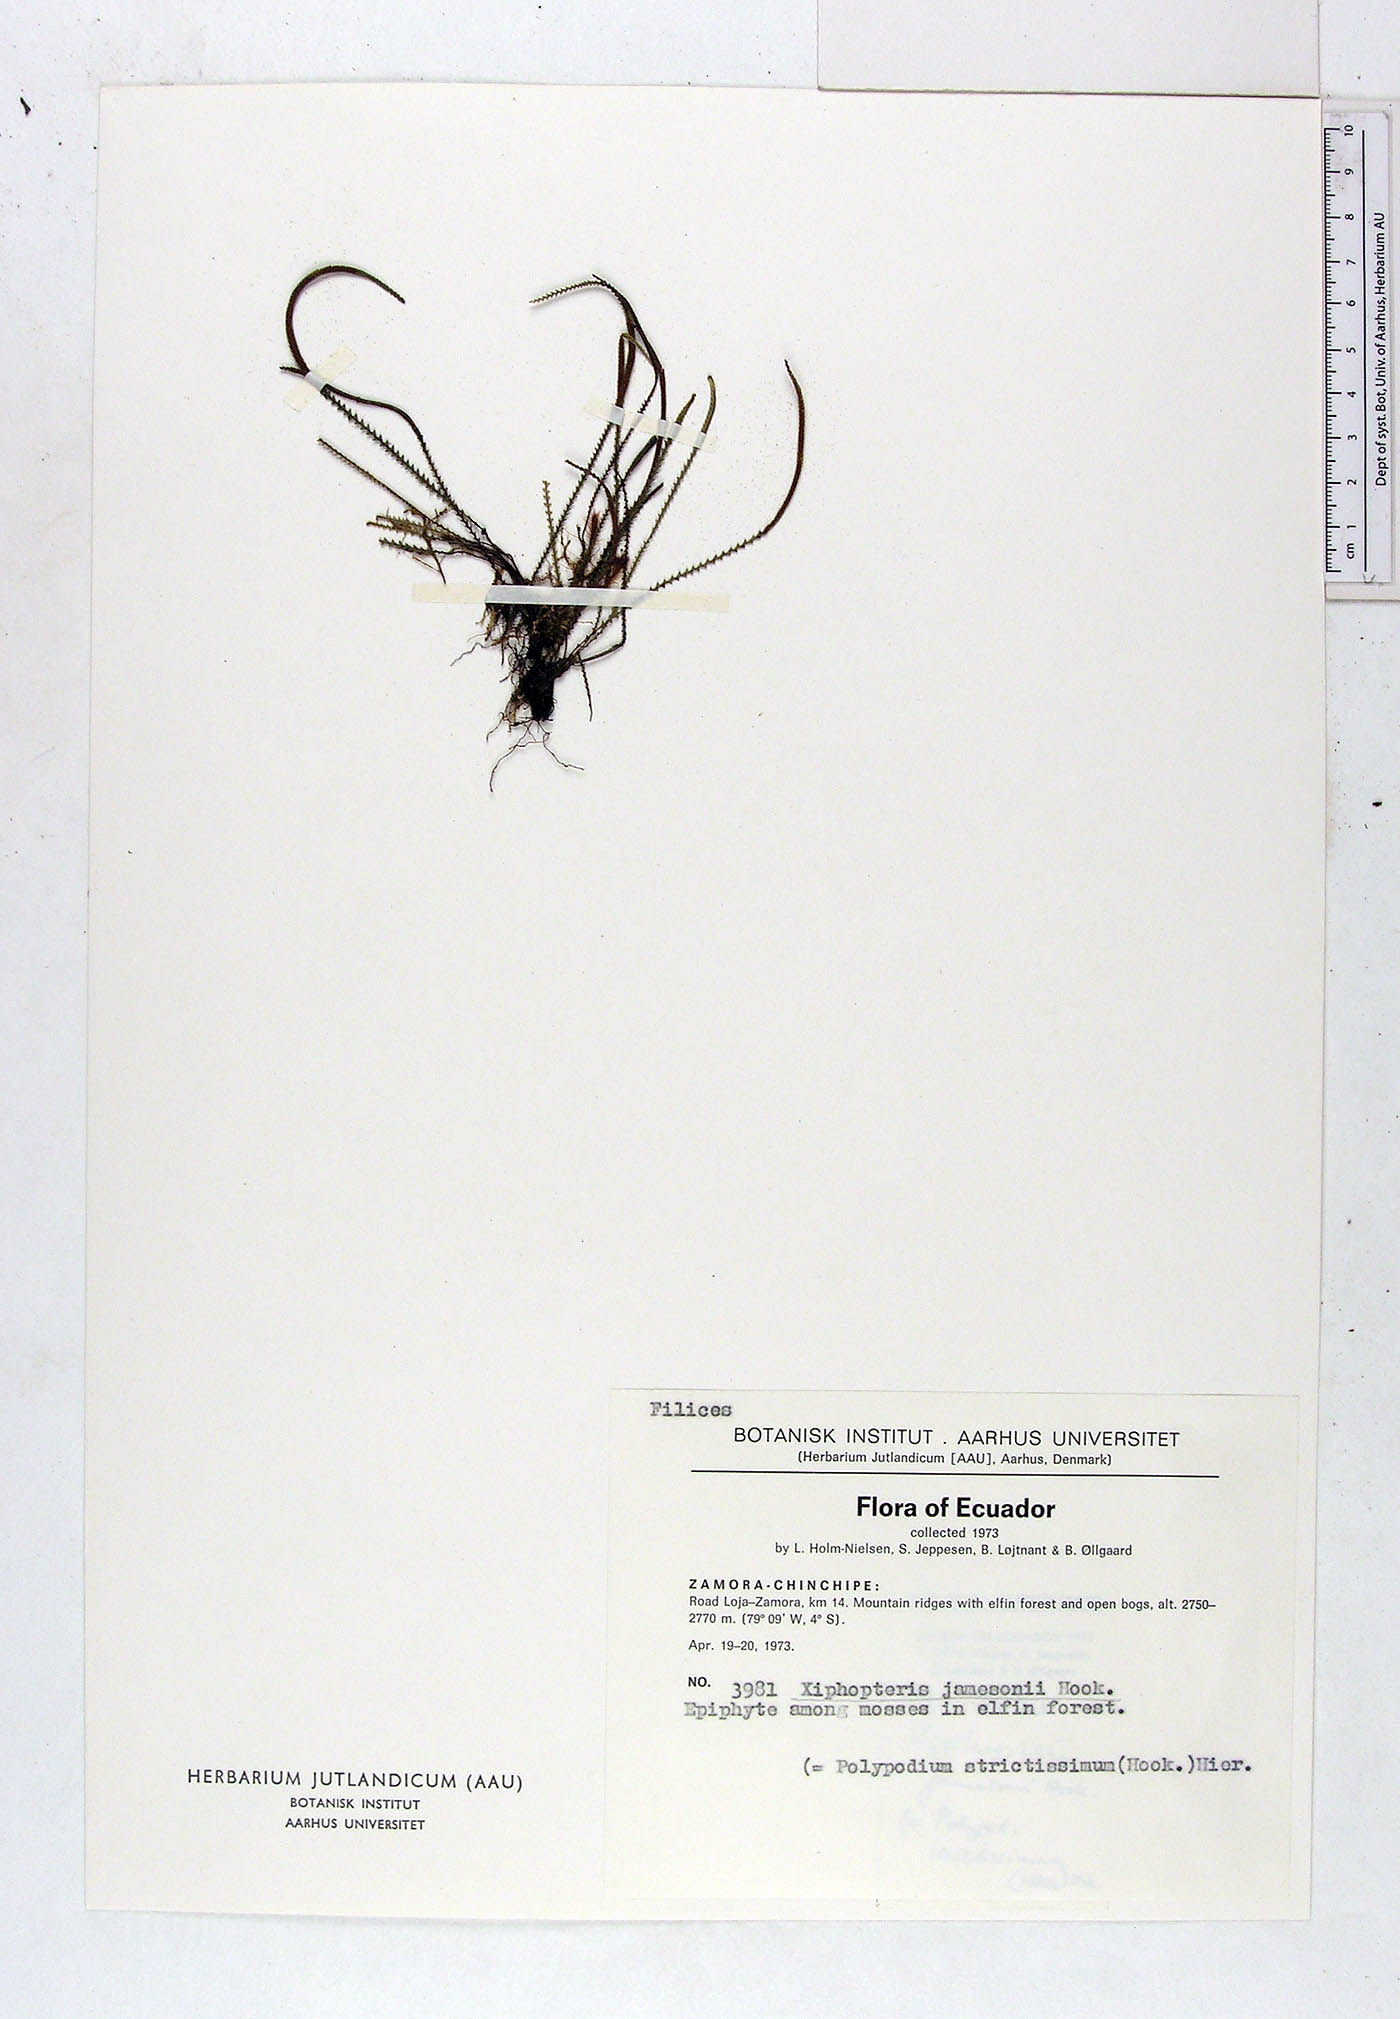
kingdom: Plantae
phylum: Tracheophyta
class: Polypodiopsida
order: Polypodiales
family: Polypodiaceae
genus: Stenogrammitis
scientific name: Stenogrammitis jamesonii
